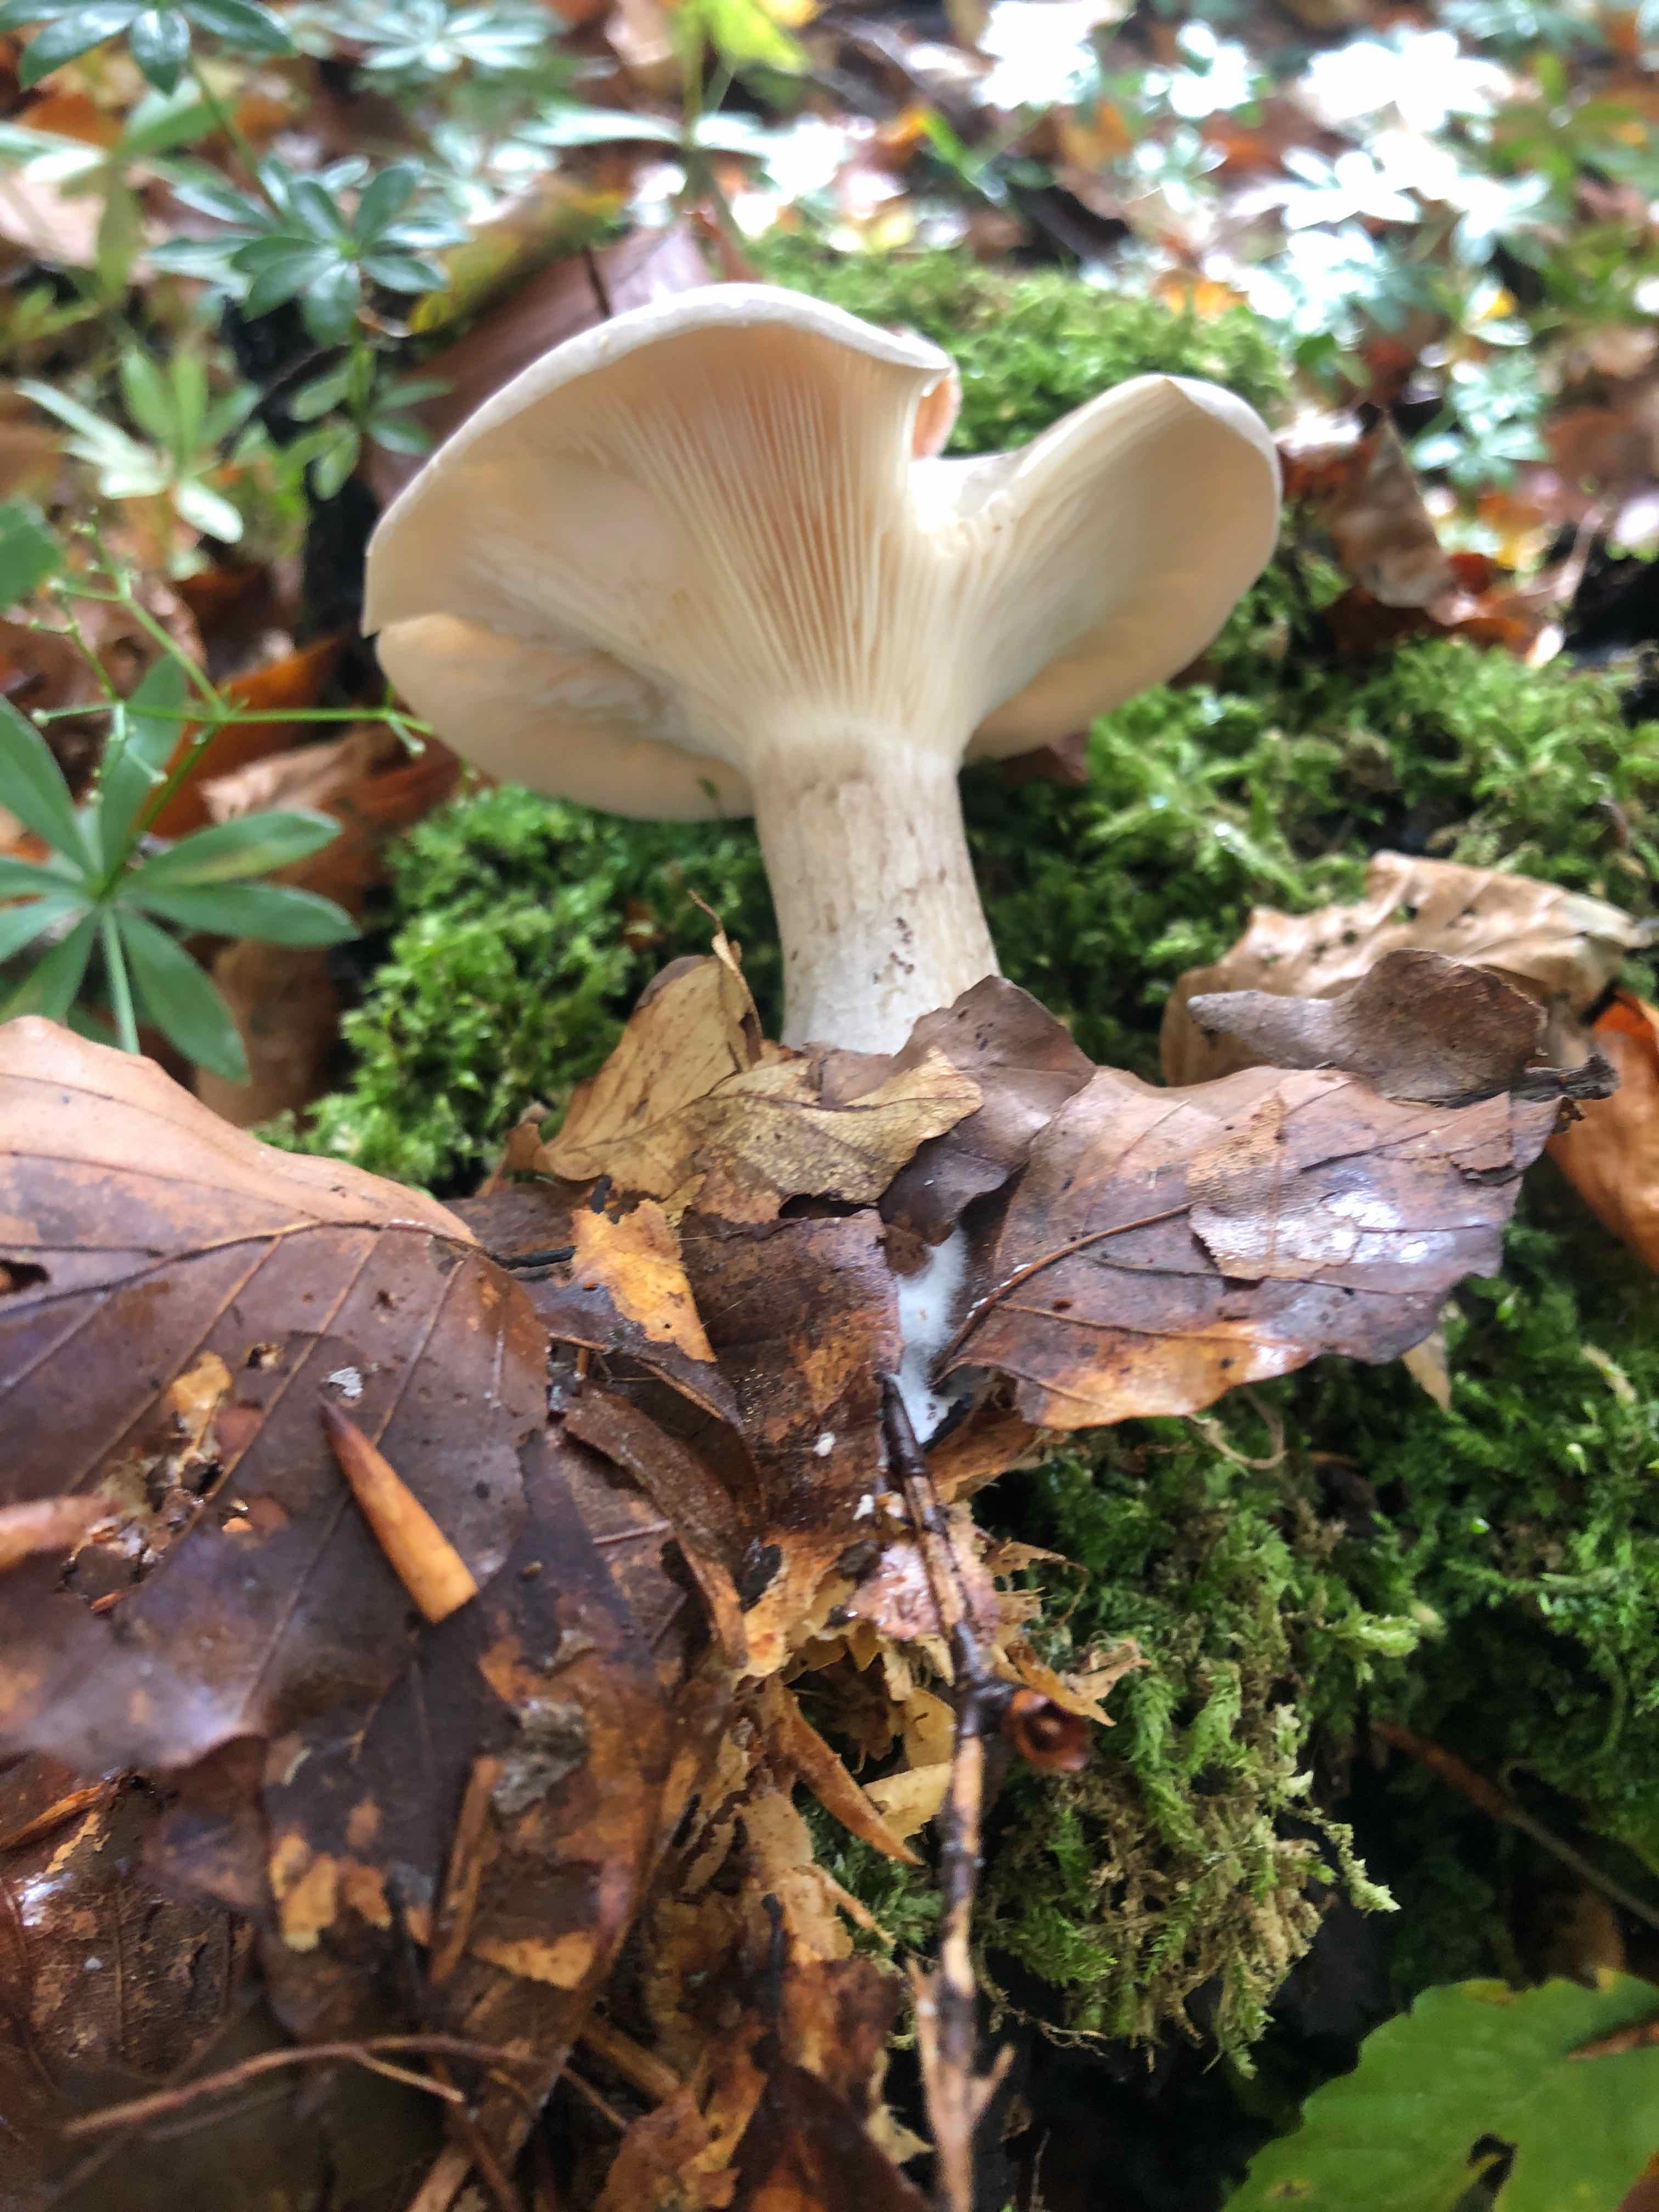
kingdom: Fungi
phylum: Basidiomycota
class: Agaricomycetes
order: Agaricales
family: Tricholomataceae
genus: Clitocybe
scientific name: Clitocybe nebularis
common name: tåge-tragthat
